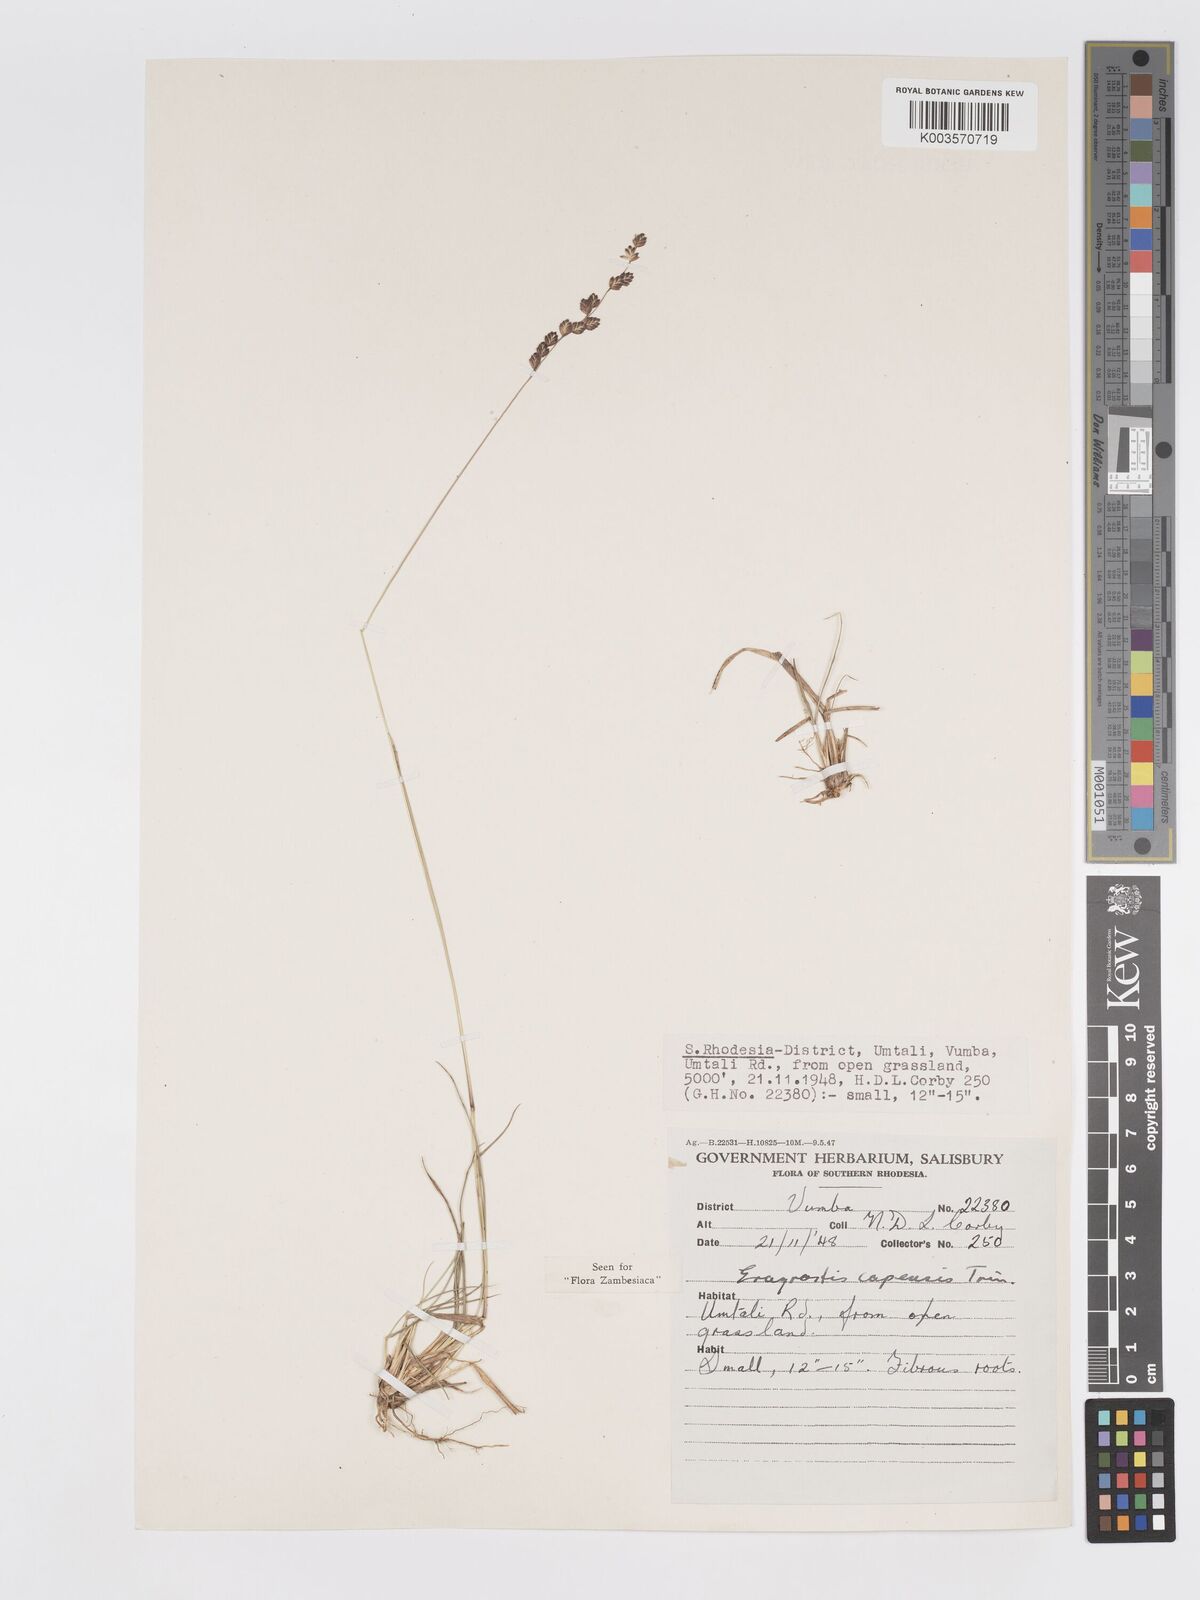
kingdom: Plantae
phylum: Tracheophyta
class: Liliopsida
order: Poales
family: Poaceae
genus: Eragrostis
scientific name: Eragrostis capensis
